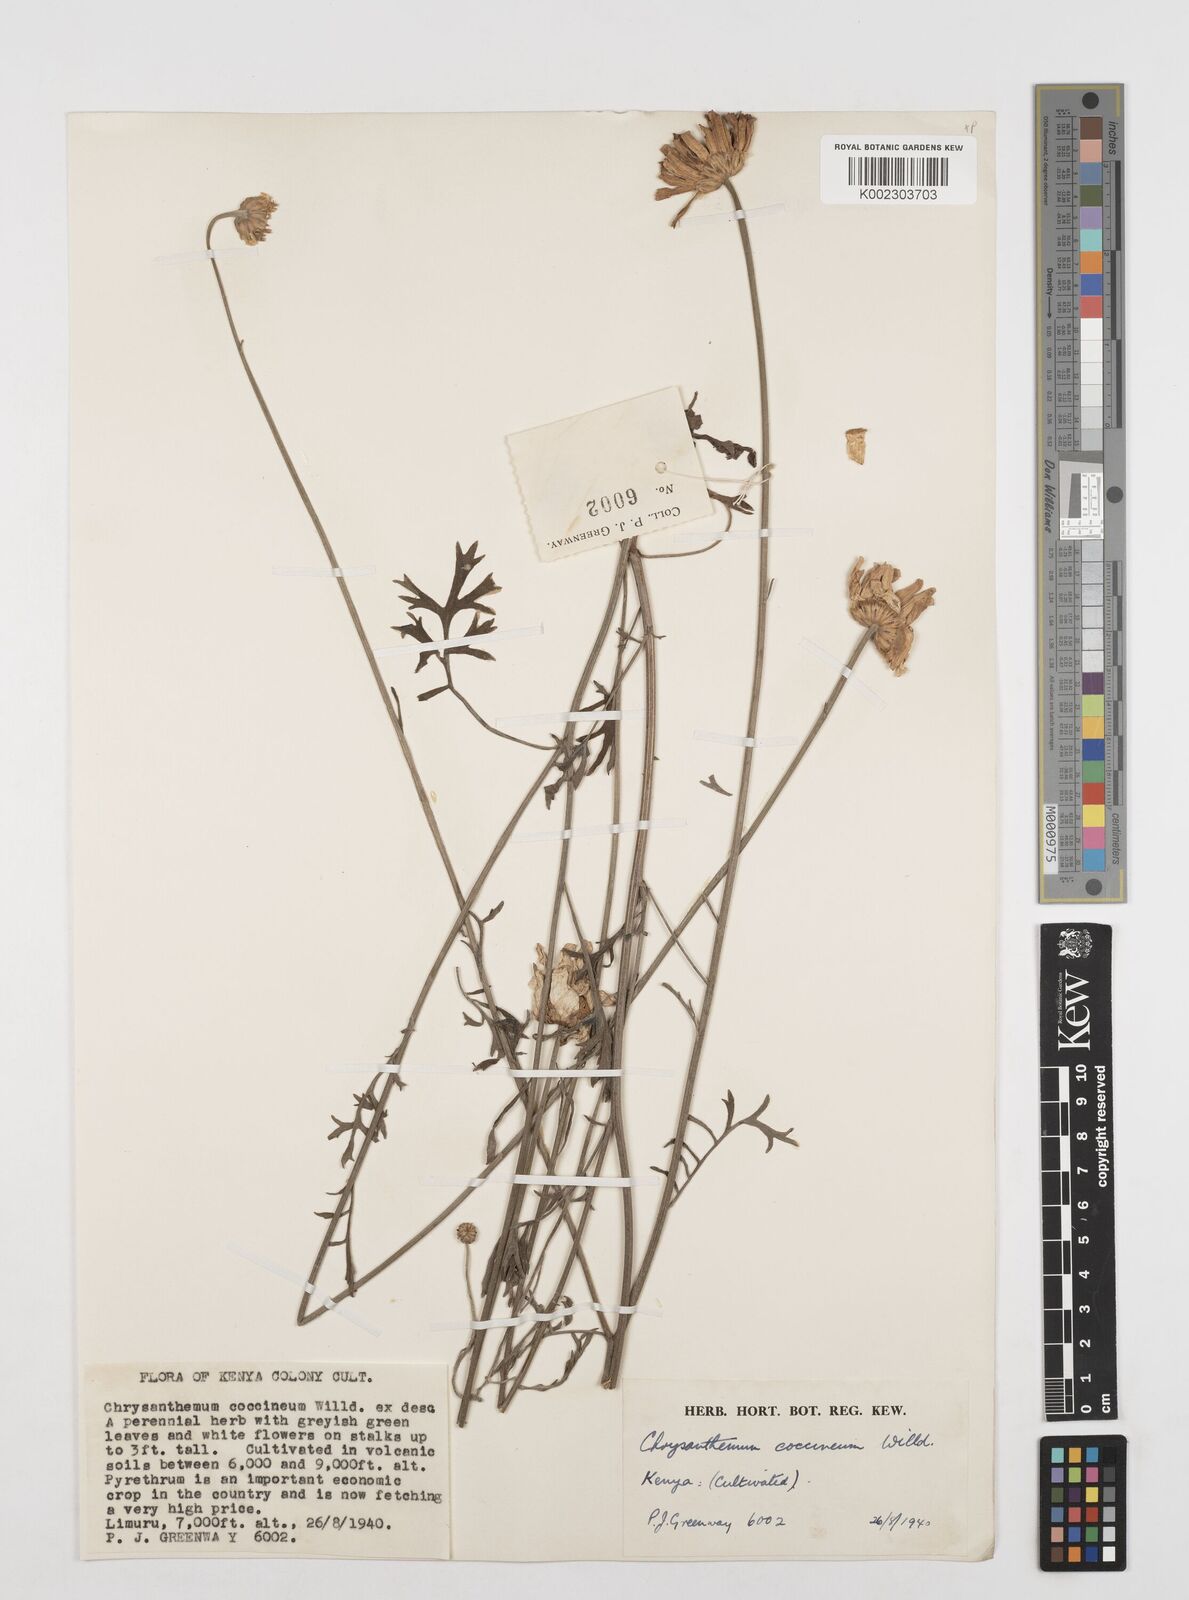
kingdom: Plantae
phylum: Tracheophyta
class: Magnoliopsida
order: Asterales
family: Asteraceae
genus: Tanacetum
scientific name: Tanacetum
